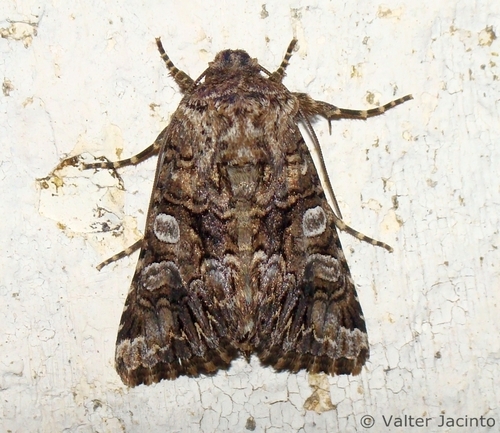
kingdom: Animalia
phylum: Arthropoda
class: Insecta
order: Lepidoptera
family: Noctuidae
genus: Hadena
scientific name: Hadena sancta
